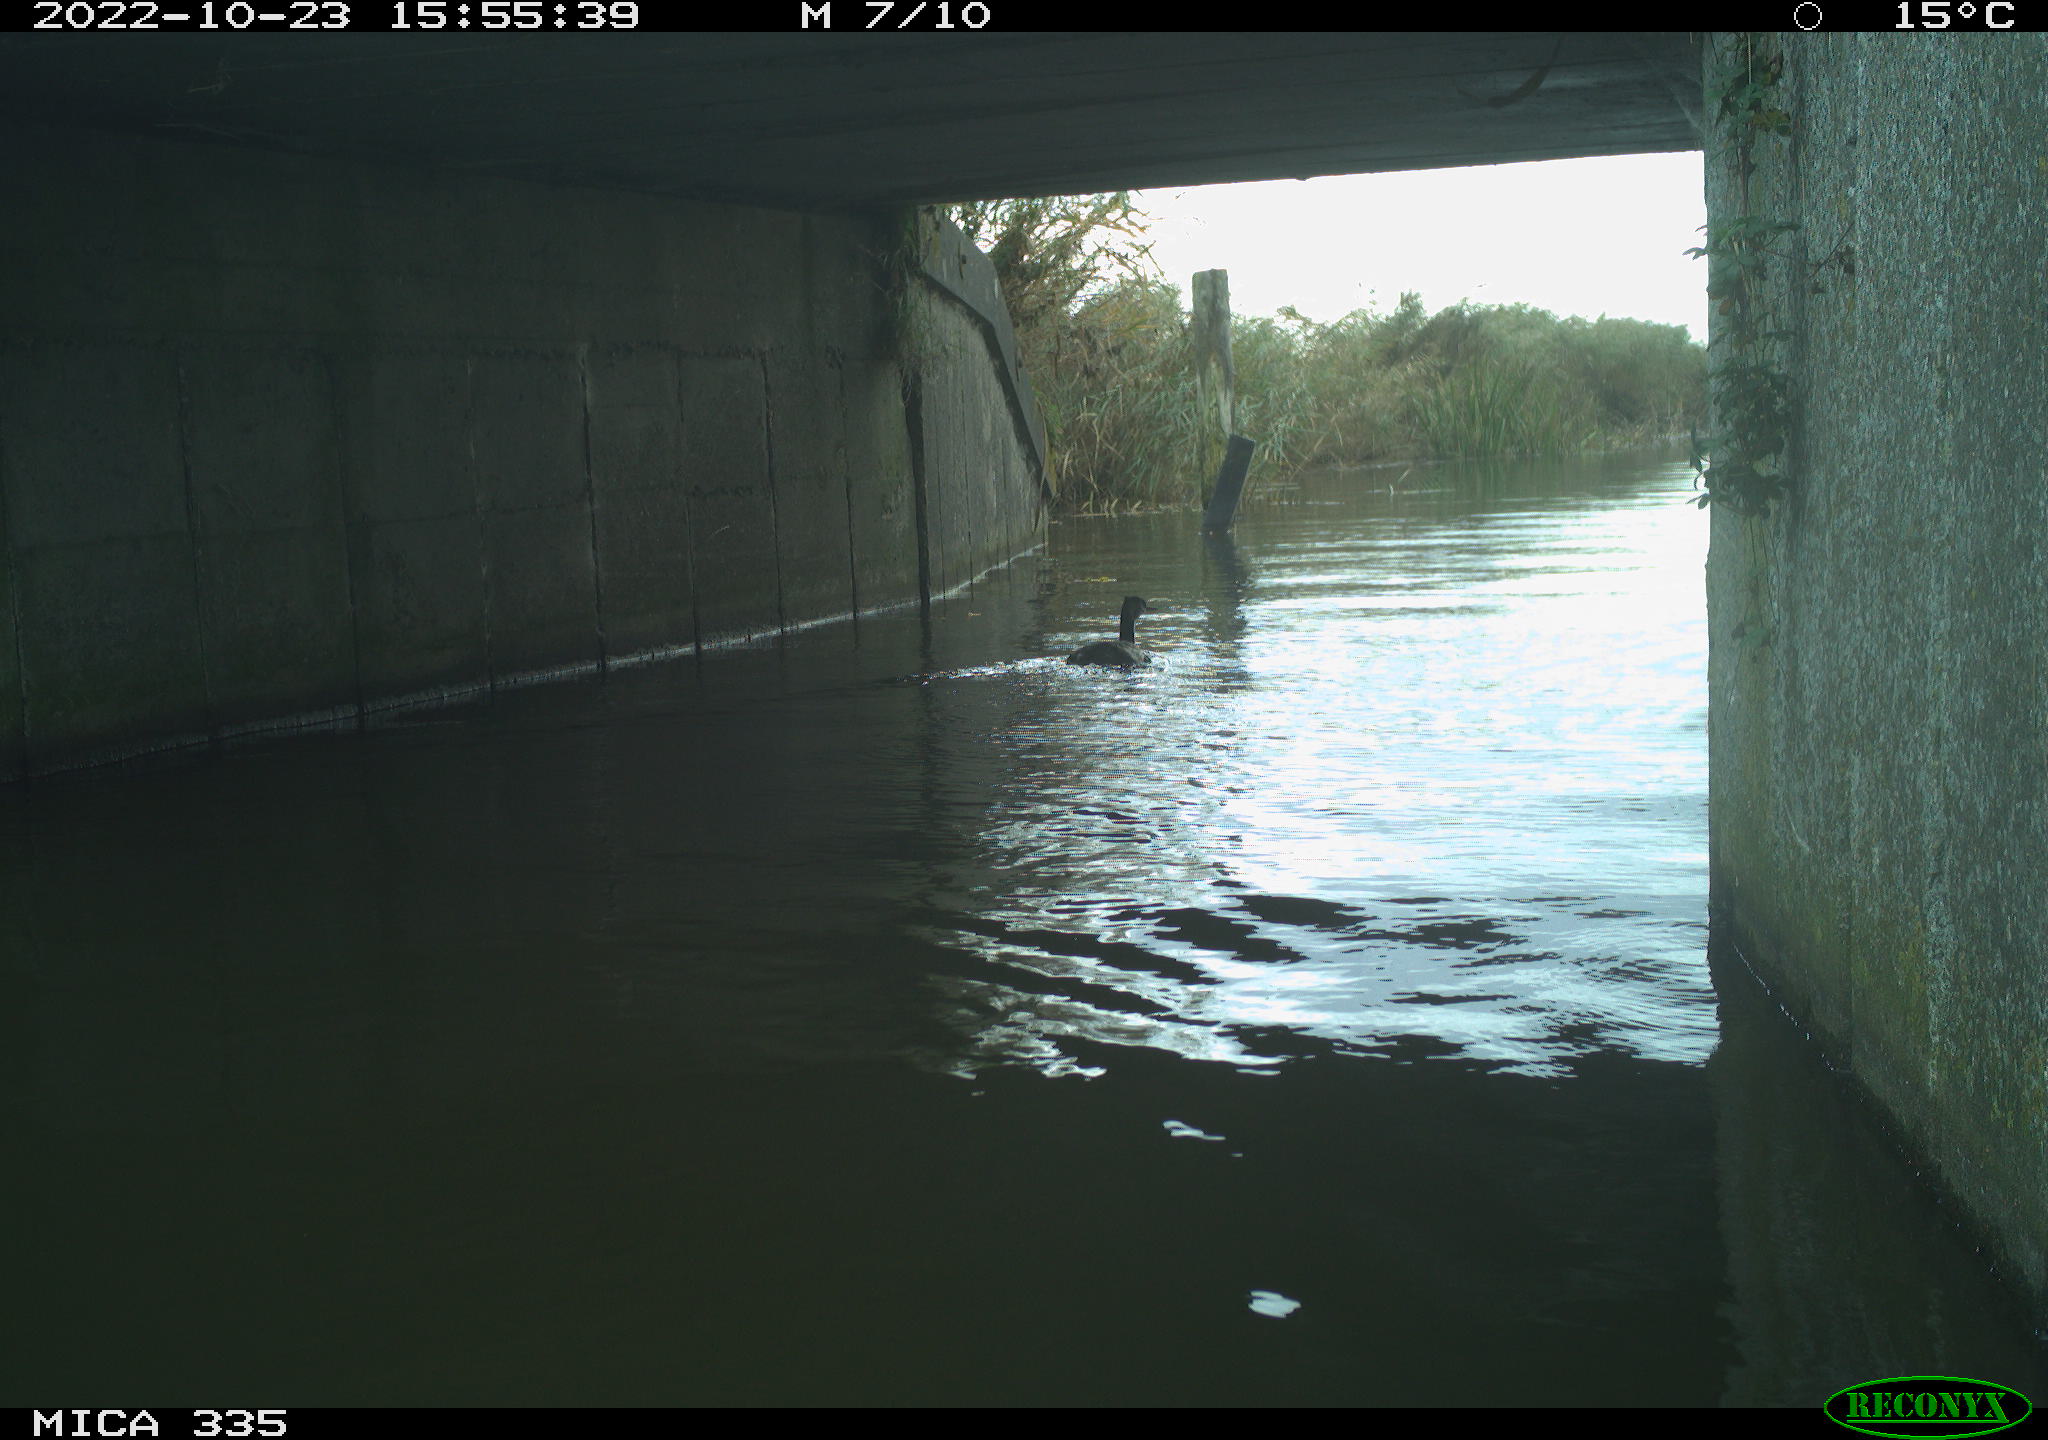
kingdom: Animalia
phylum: Chordata
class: Aves
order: Podicipediformes
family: Podicipedidae
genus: Podiceps
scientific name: Podiceps cristatus
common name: Great crested grebe
